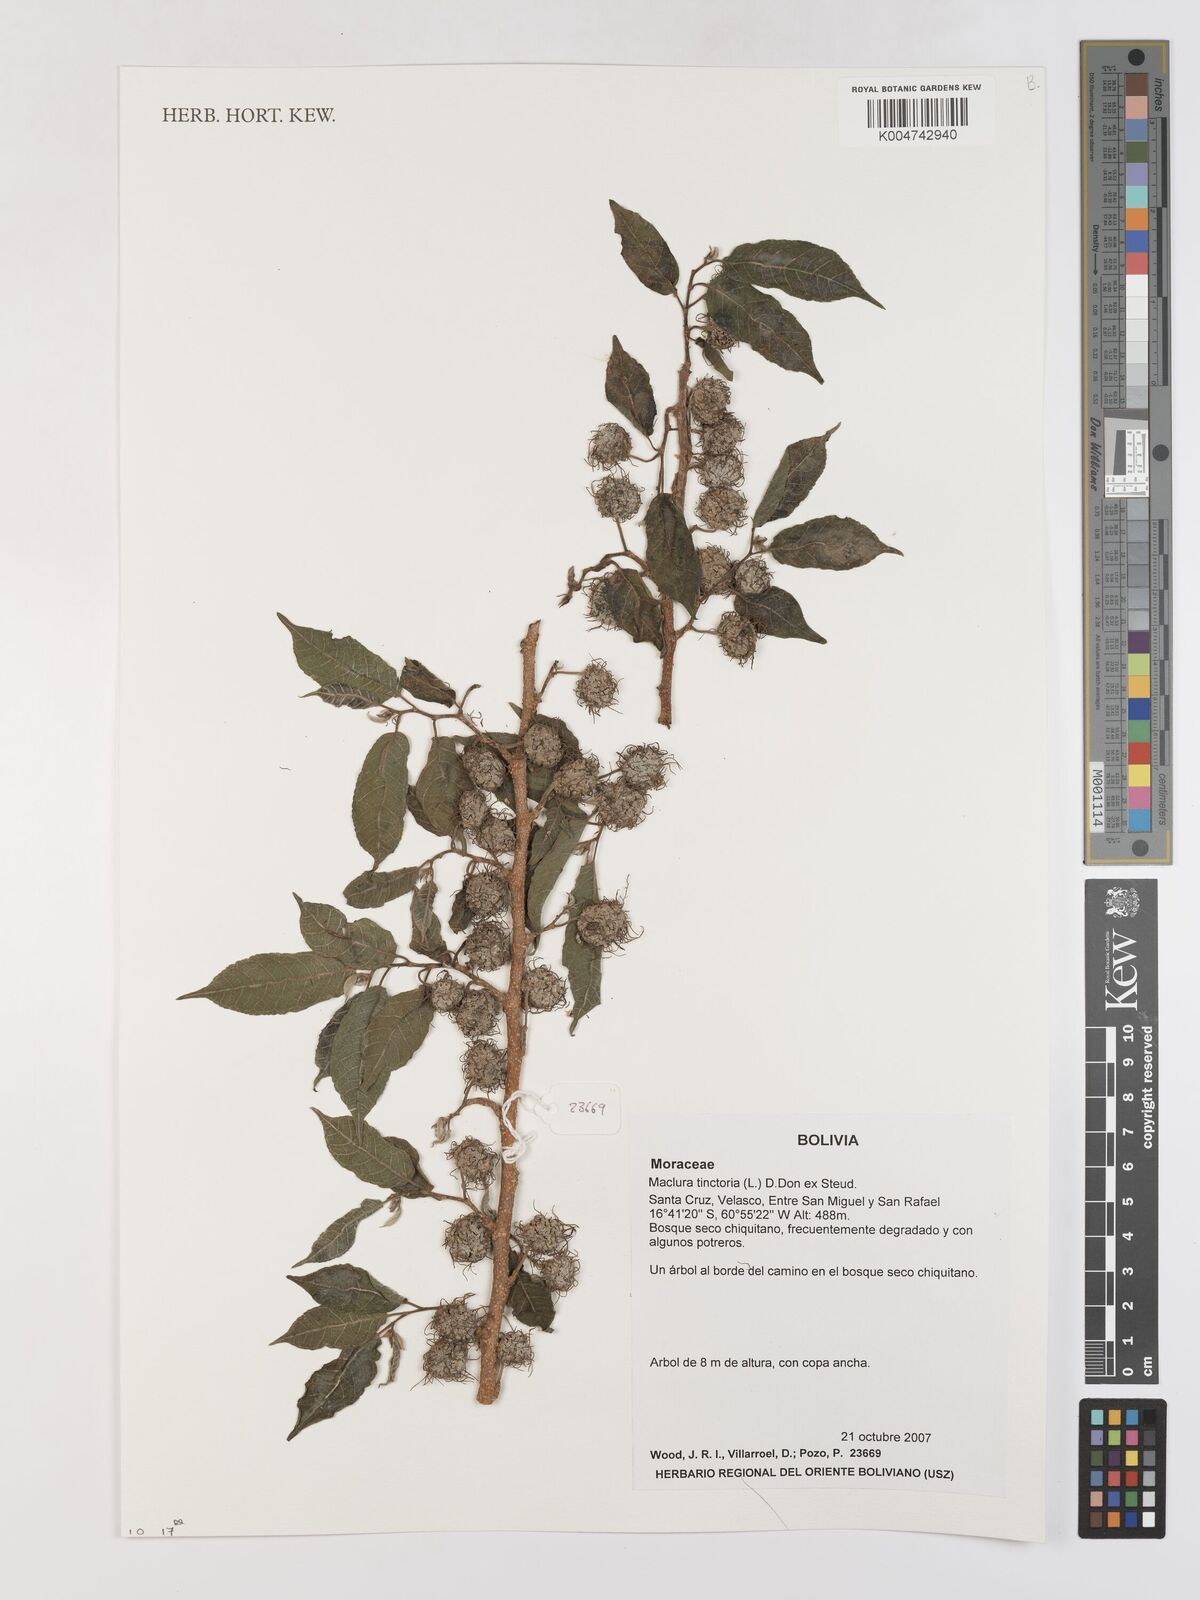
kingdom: Plantae
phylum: Tracheophyta
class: Magnoliopsida
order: Rosales
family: Moraceae
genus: Maclura
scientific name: Maclura tinctoria
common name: Old fustic
